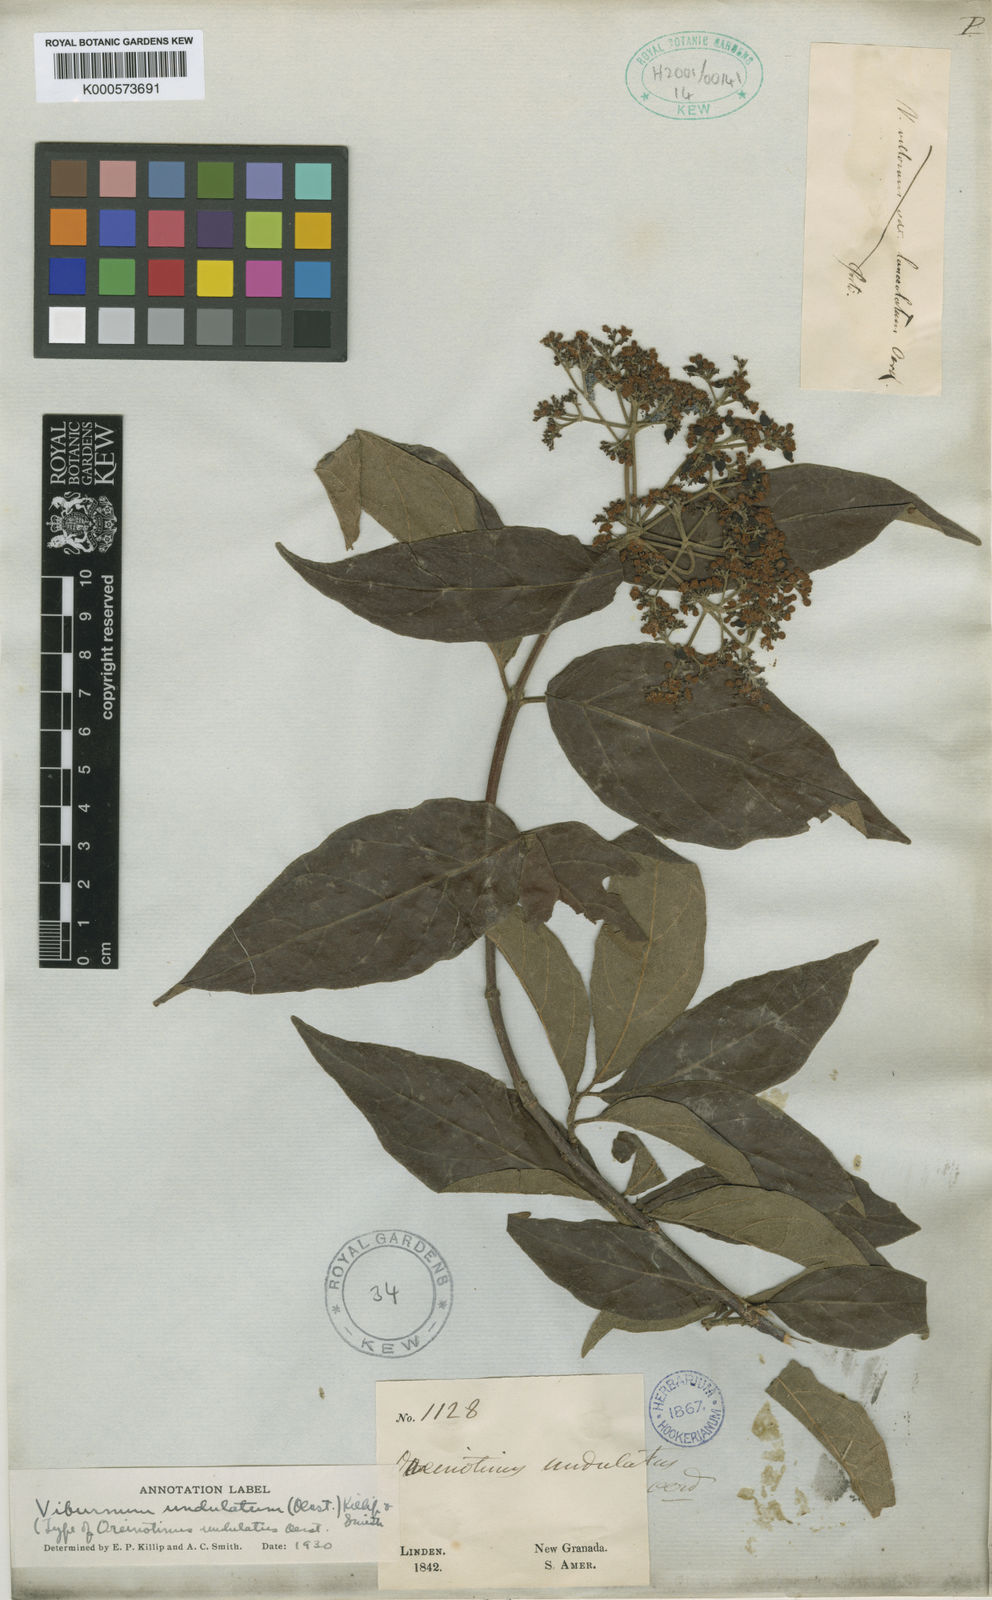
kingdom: Plantae
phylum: Tracheophyta
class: Magnoliopsida
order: Dipsacales
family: Viburnaceae
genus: Viburnum
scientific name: Viburnum
